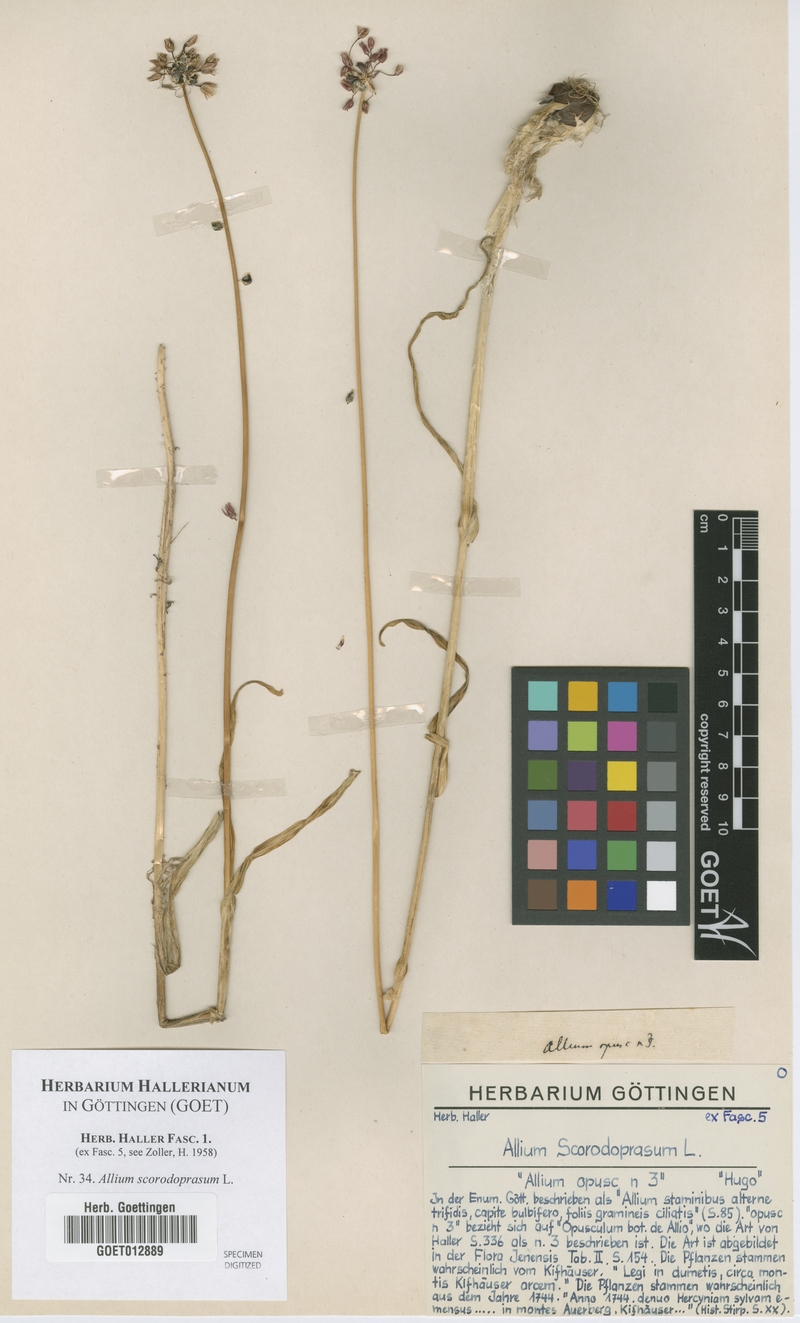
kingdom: Plantae
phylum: Tracheophyta
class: Liliopsida
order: Asparagales
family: Amaryllidaceae
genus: Allium
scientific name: Allium scorodoprasum
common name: Sand leek
